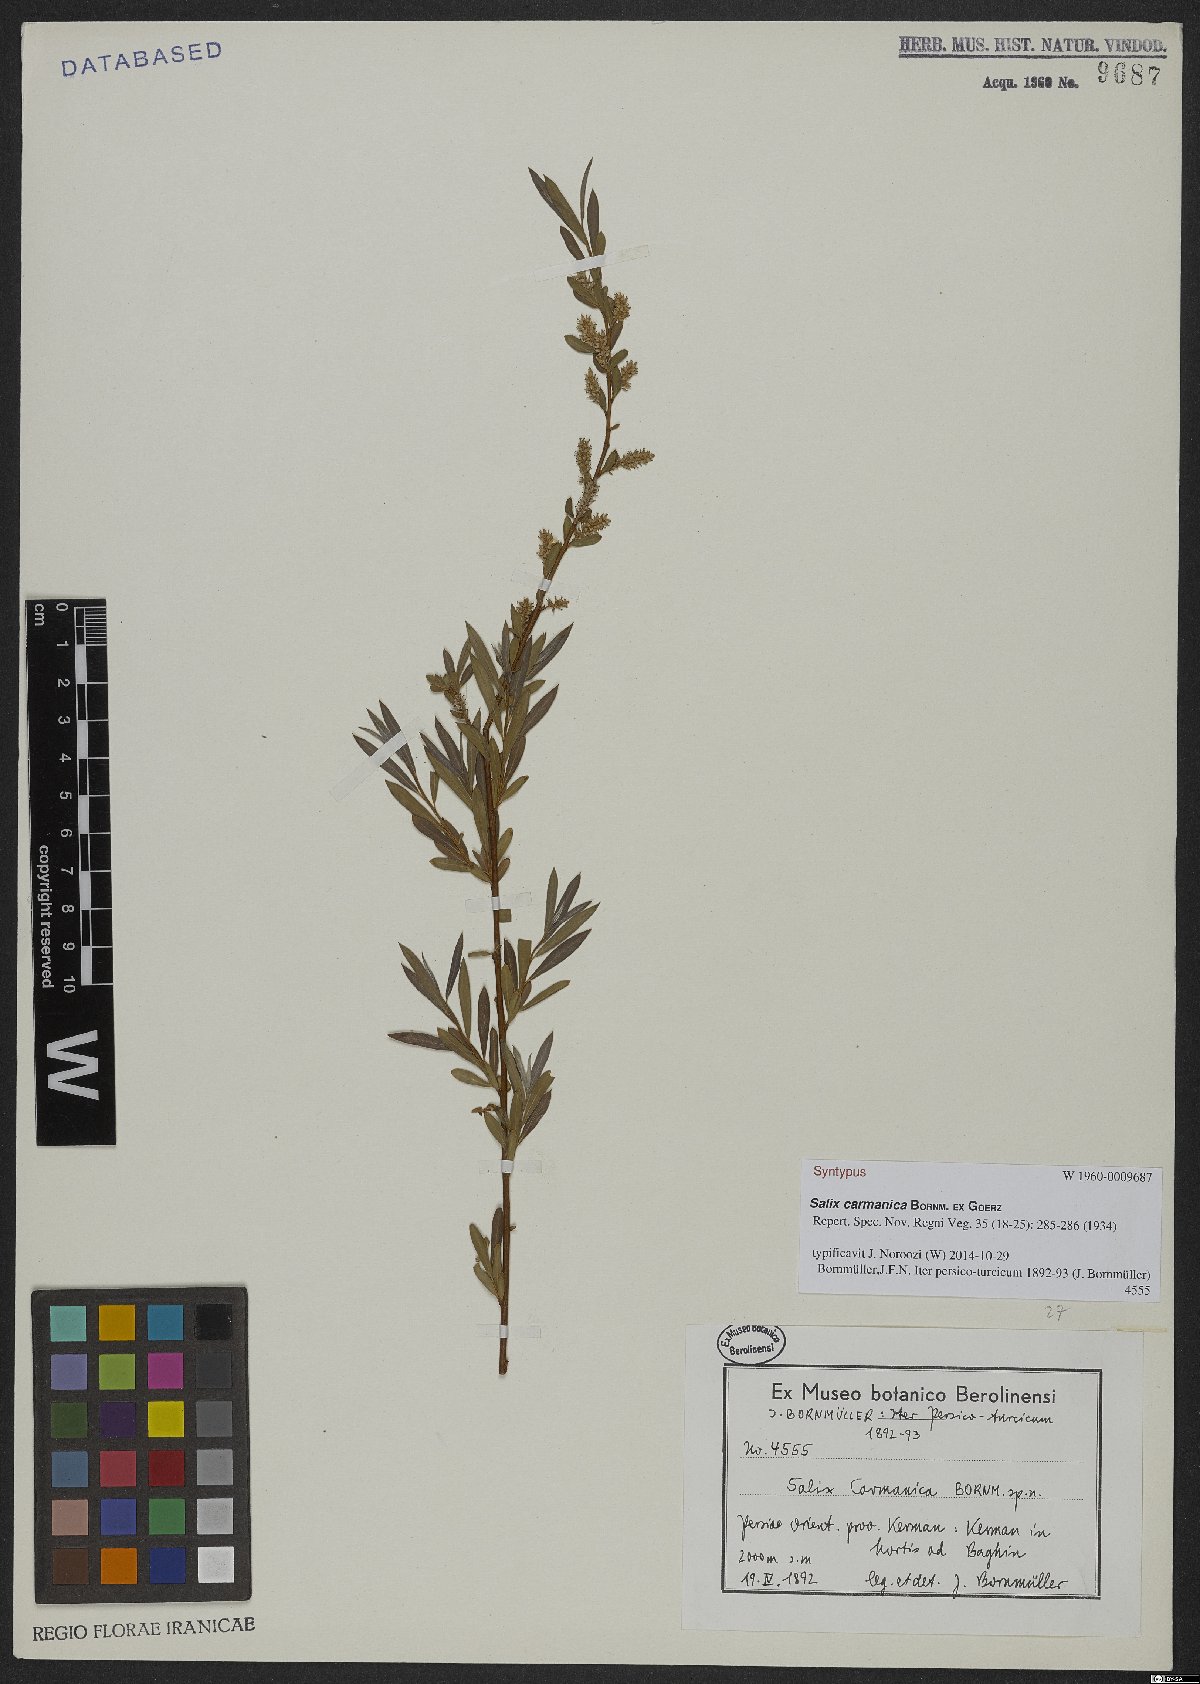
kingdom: Plantae
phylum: Tracheophyta
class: Magnoliopsida
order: Malpighiales
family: Salicaceae
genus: Salix
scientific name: Salix carmanica
